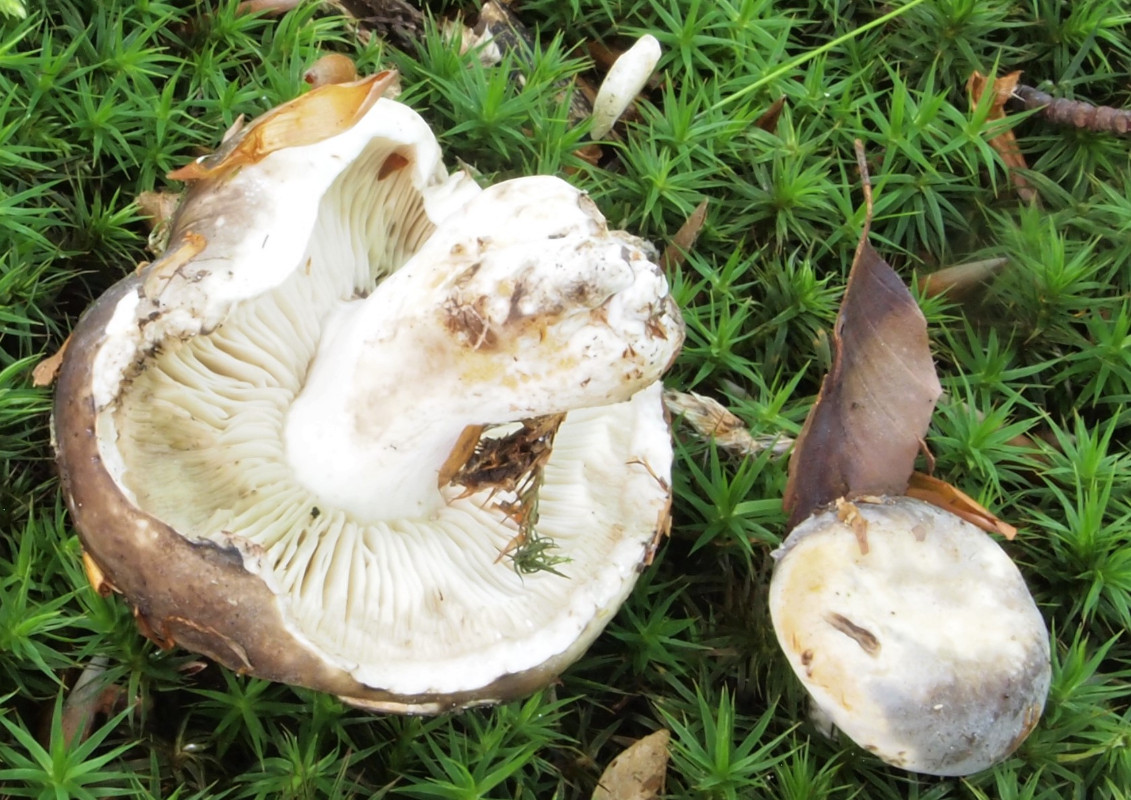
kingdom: Fungi
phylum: Basidiomycota
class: Agaricomycetes
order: Russulales
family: Russulaceae
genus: Russula
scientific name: Russula densifolia
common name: tætbladet skørhat
